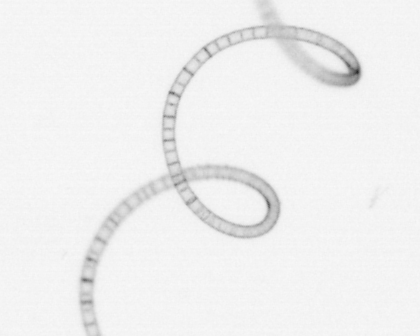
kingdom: Chromista
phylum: Ochrophyta
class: Bacillariophyceae
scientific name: Bacillariophyceae
